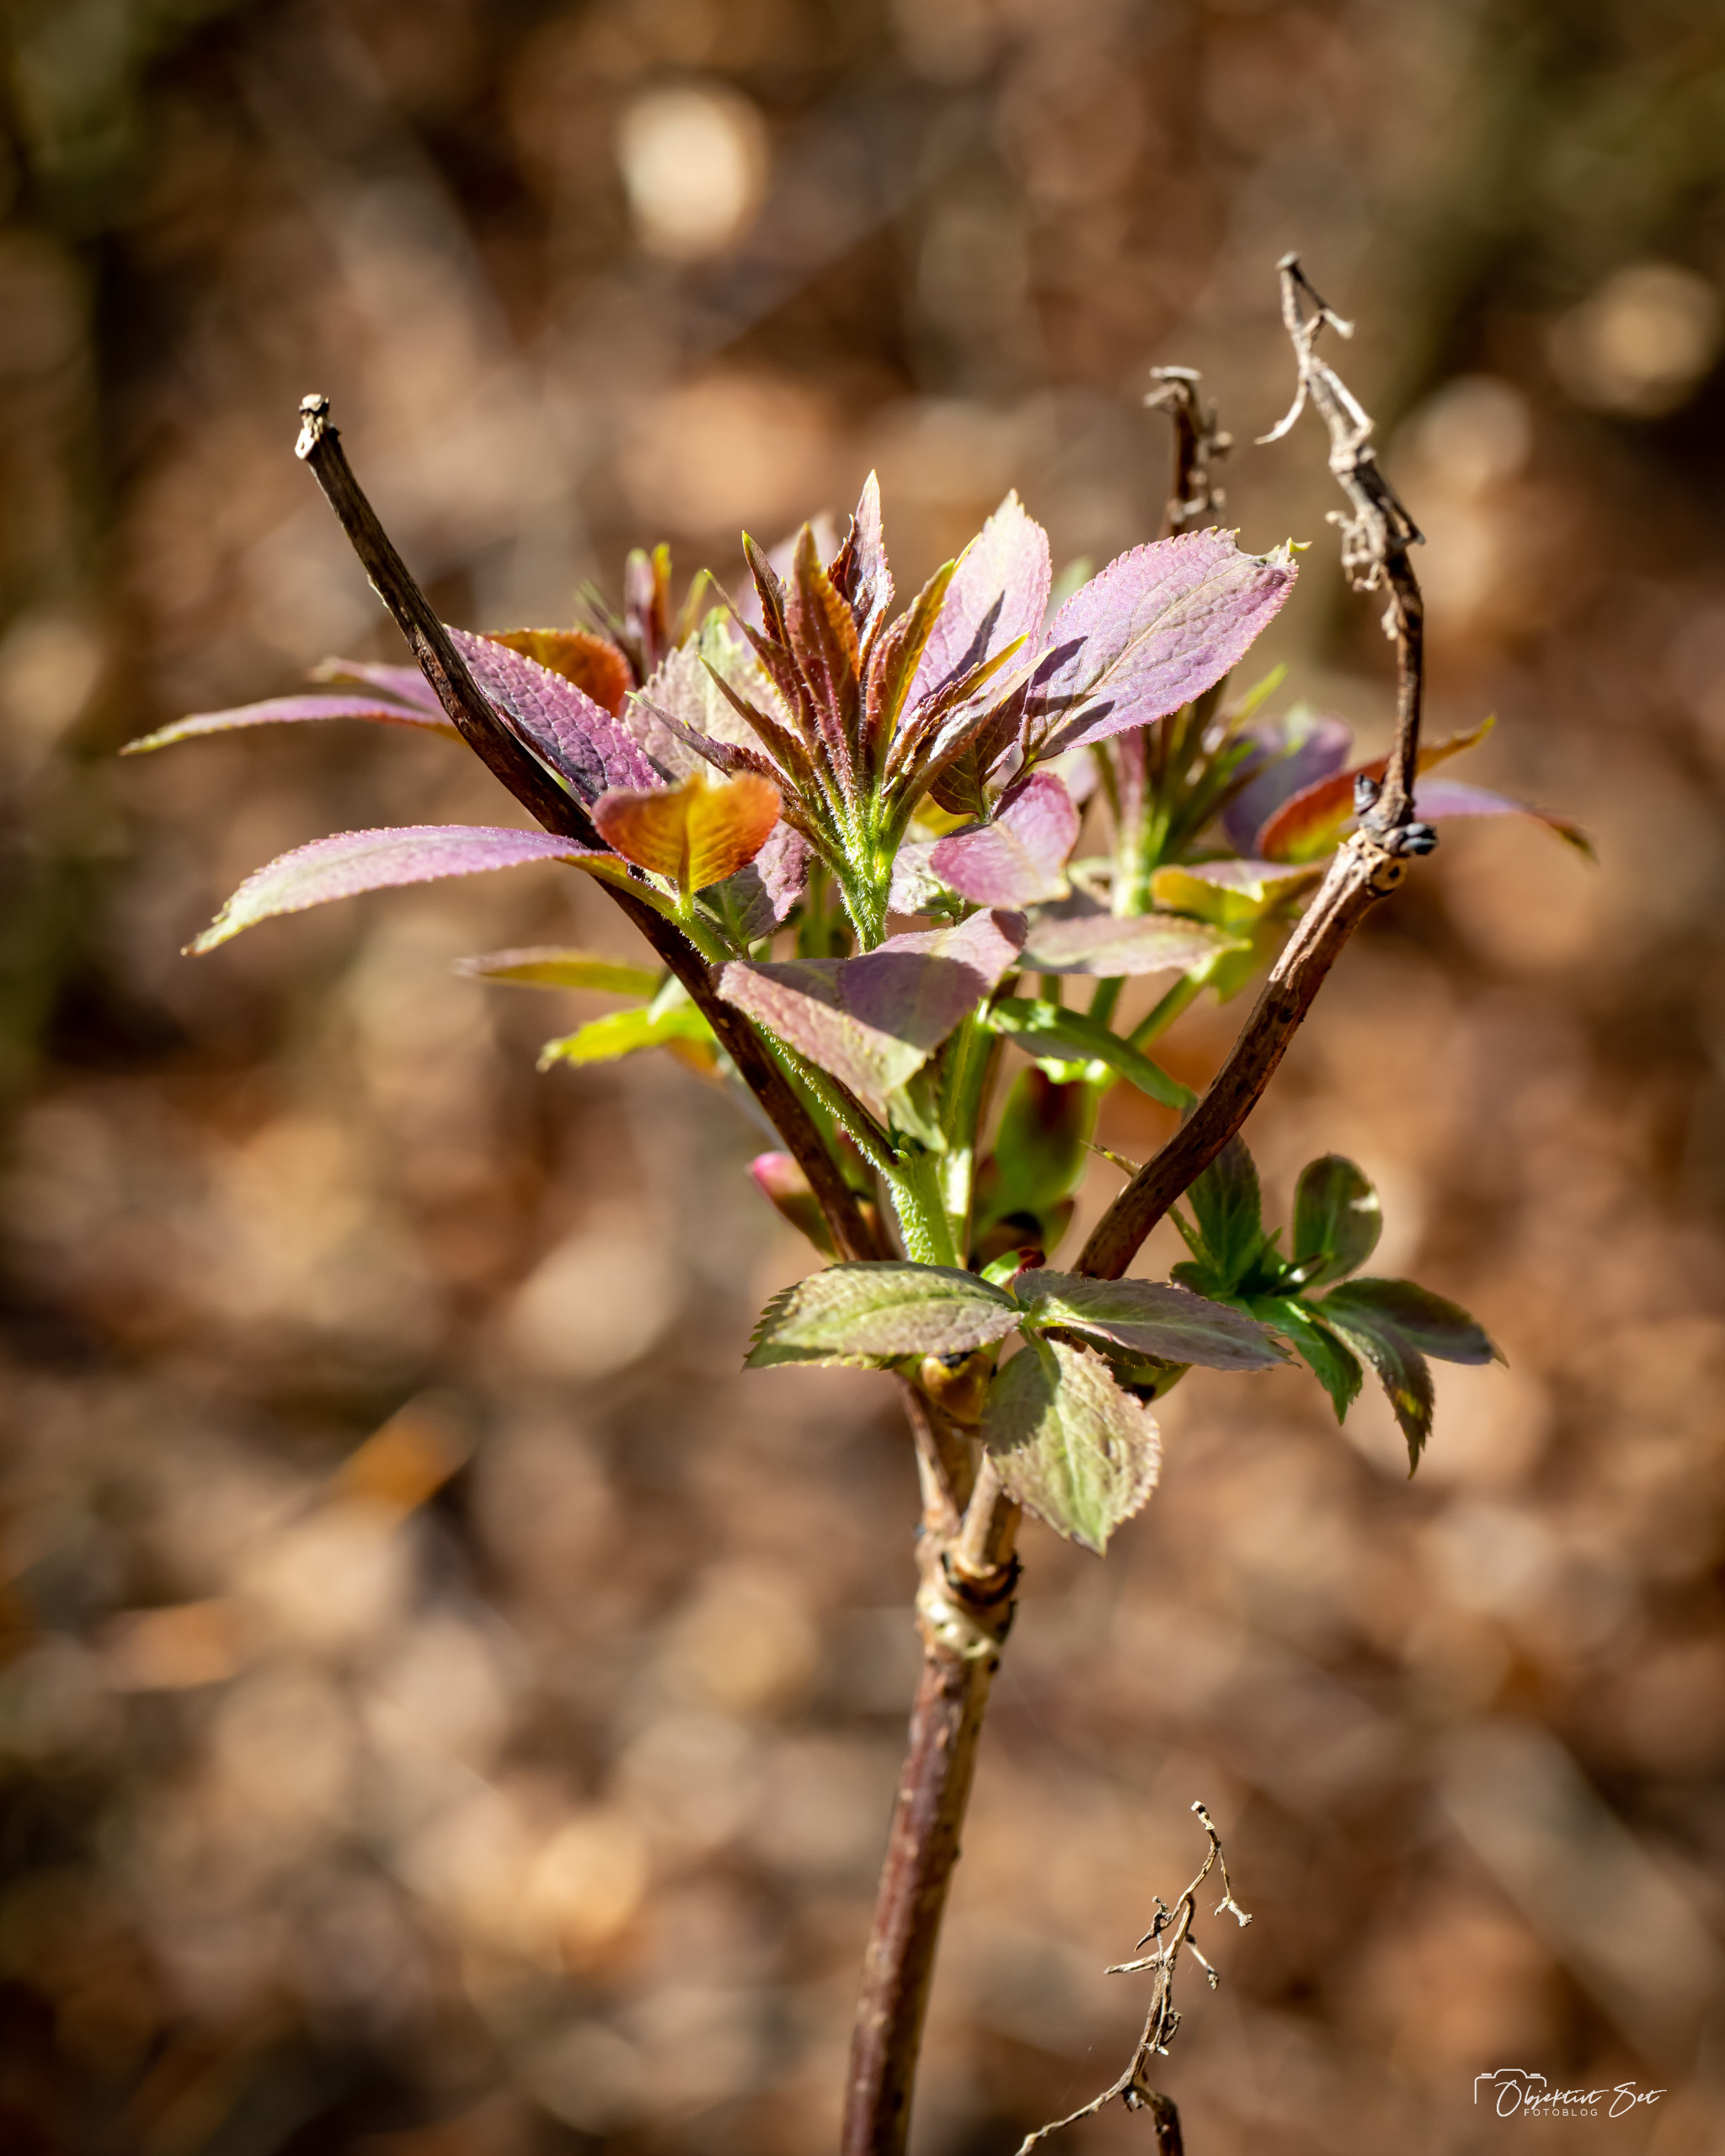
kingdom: Plantae
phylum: Tracheophyta
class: Magnoliopsida
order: Dipsacales
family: Viburnaceae
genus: Sambucus
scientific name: Sambucus racemosa
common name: Drue-hyld
